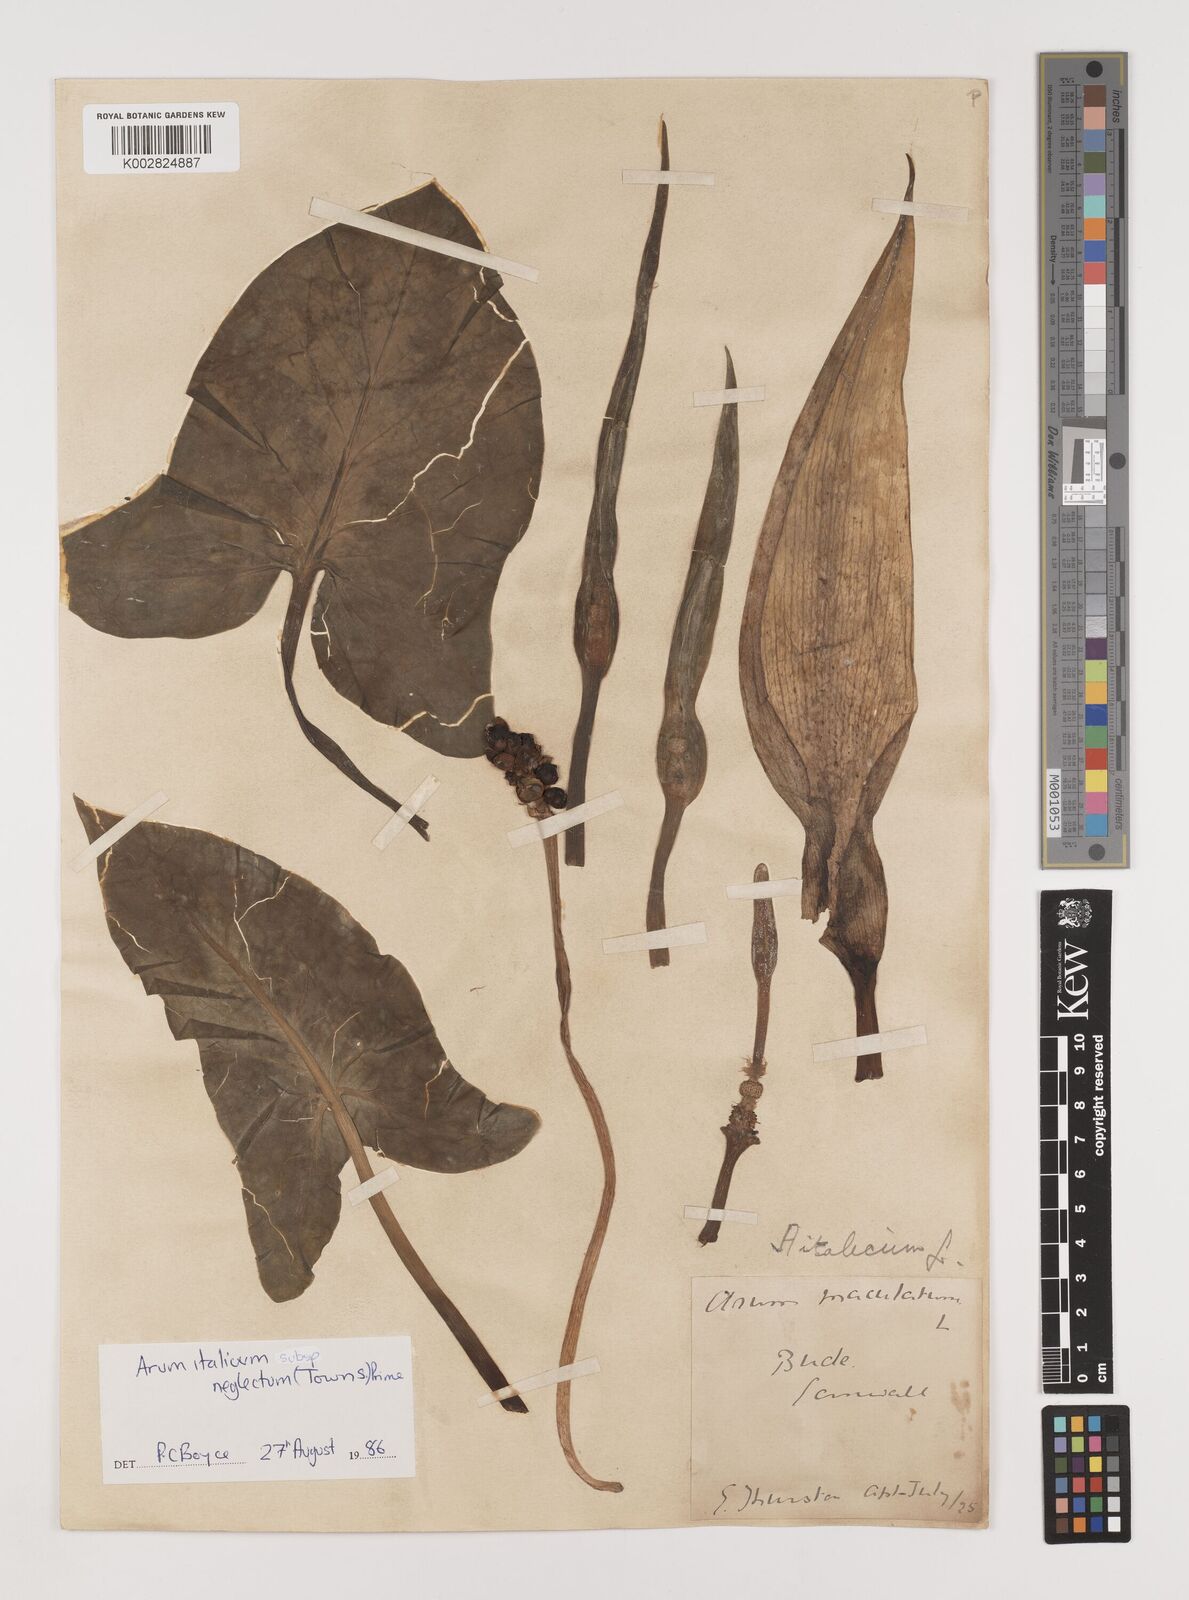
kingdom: Plantae
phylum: Tracheophyta
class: Liliopsida
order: Alismatales
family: Araceae
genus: Arum
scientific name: Arum italicum
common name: Italian lords-and-ladies
